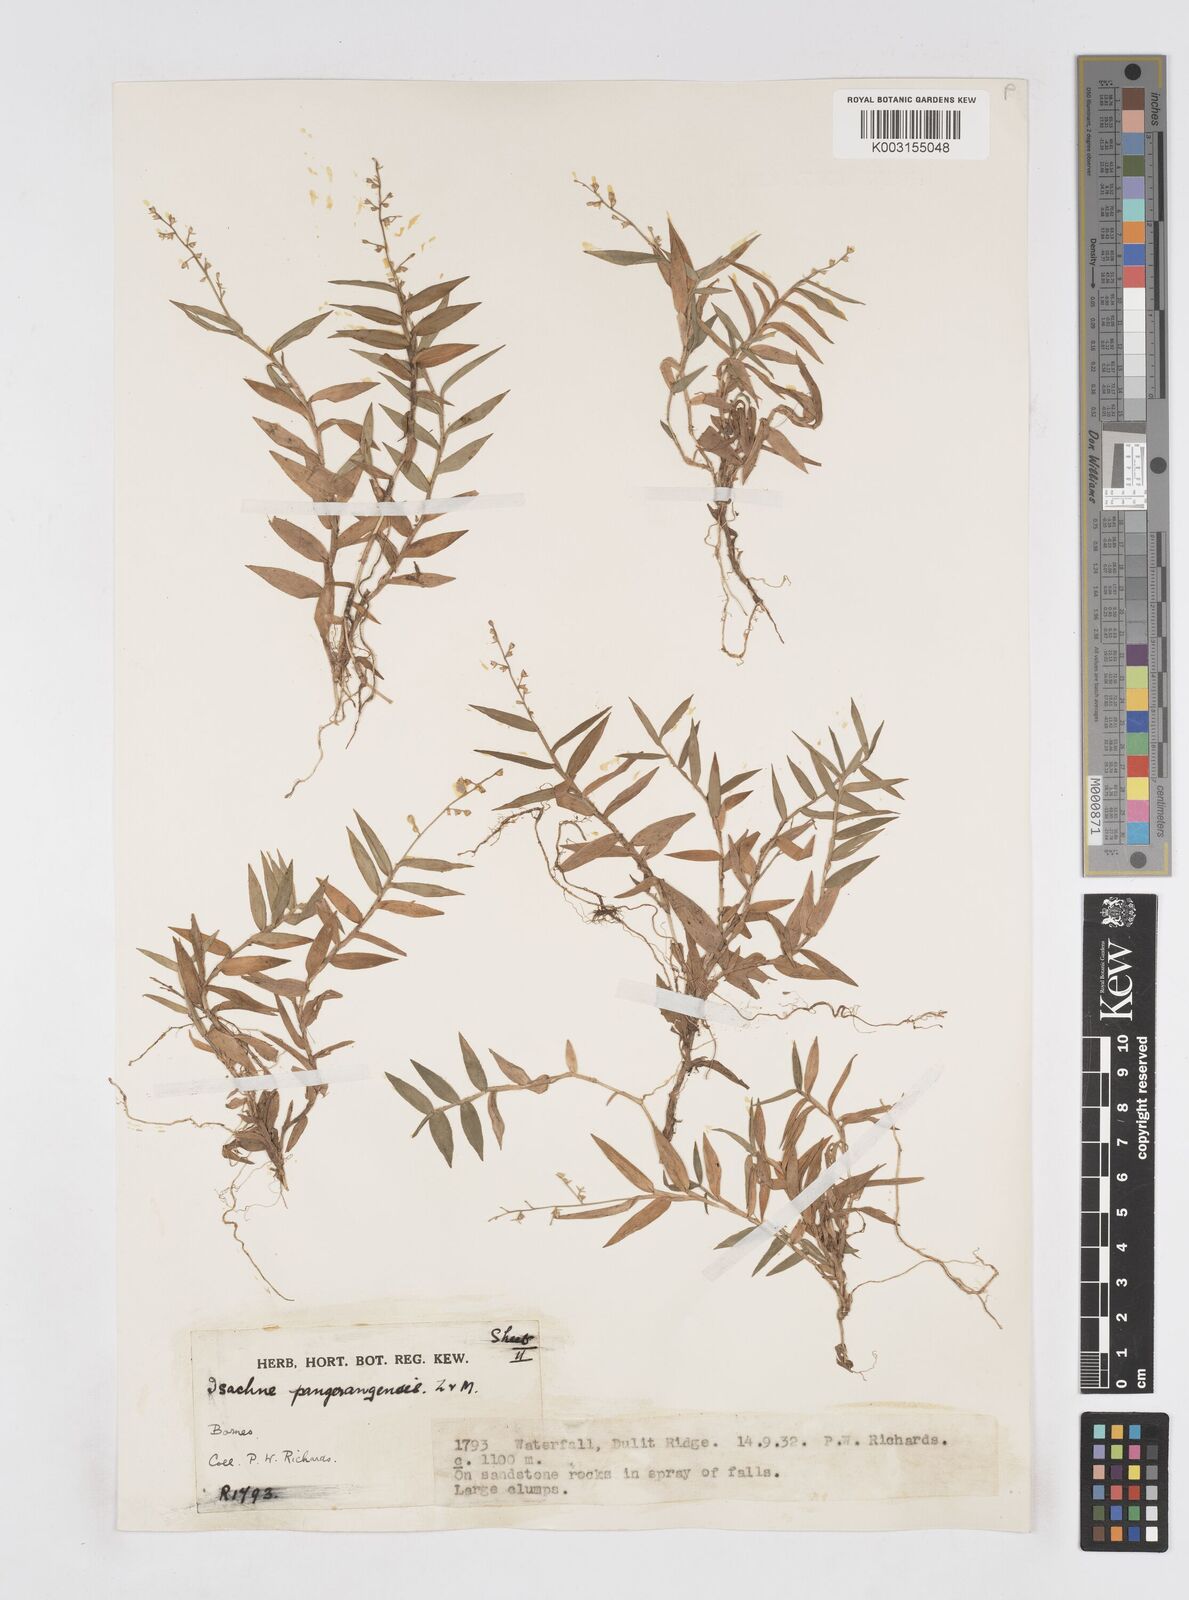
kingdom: Plantae
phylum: Tracheophyta
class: Liliopsida
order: Poales
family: Poaceae
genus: Isachne
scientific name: Isachne pangerangensis
